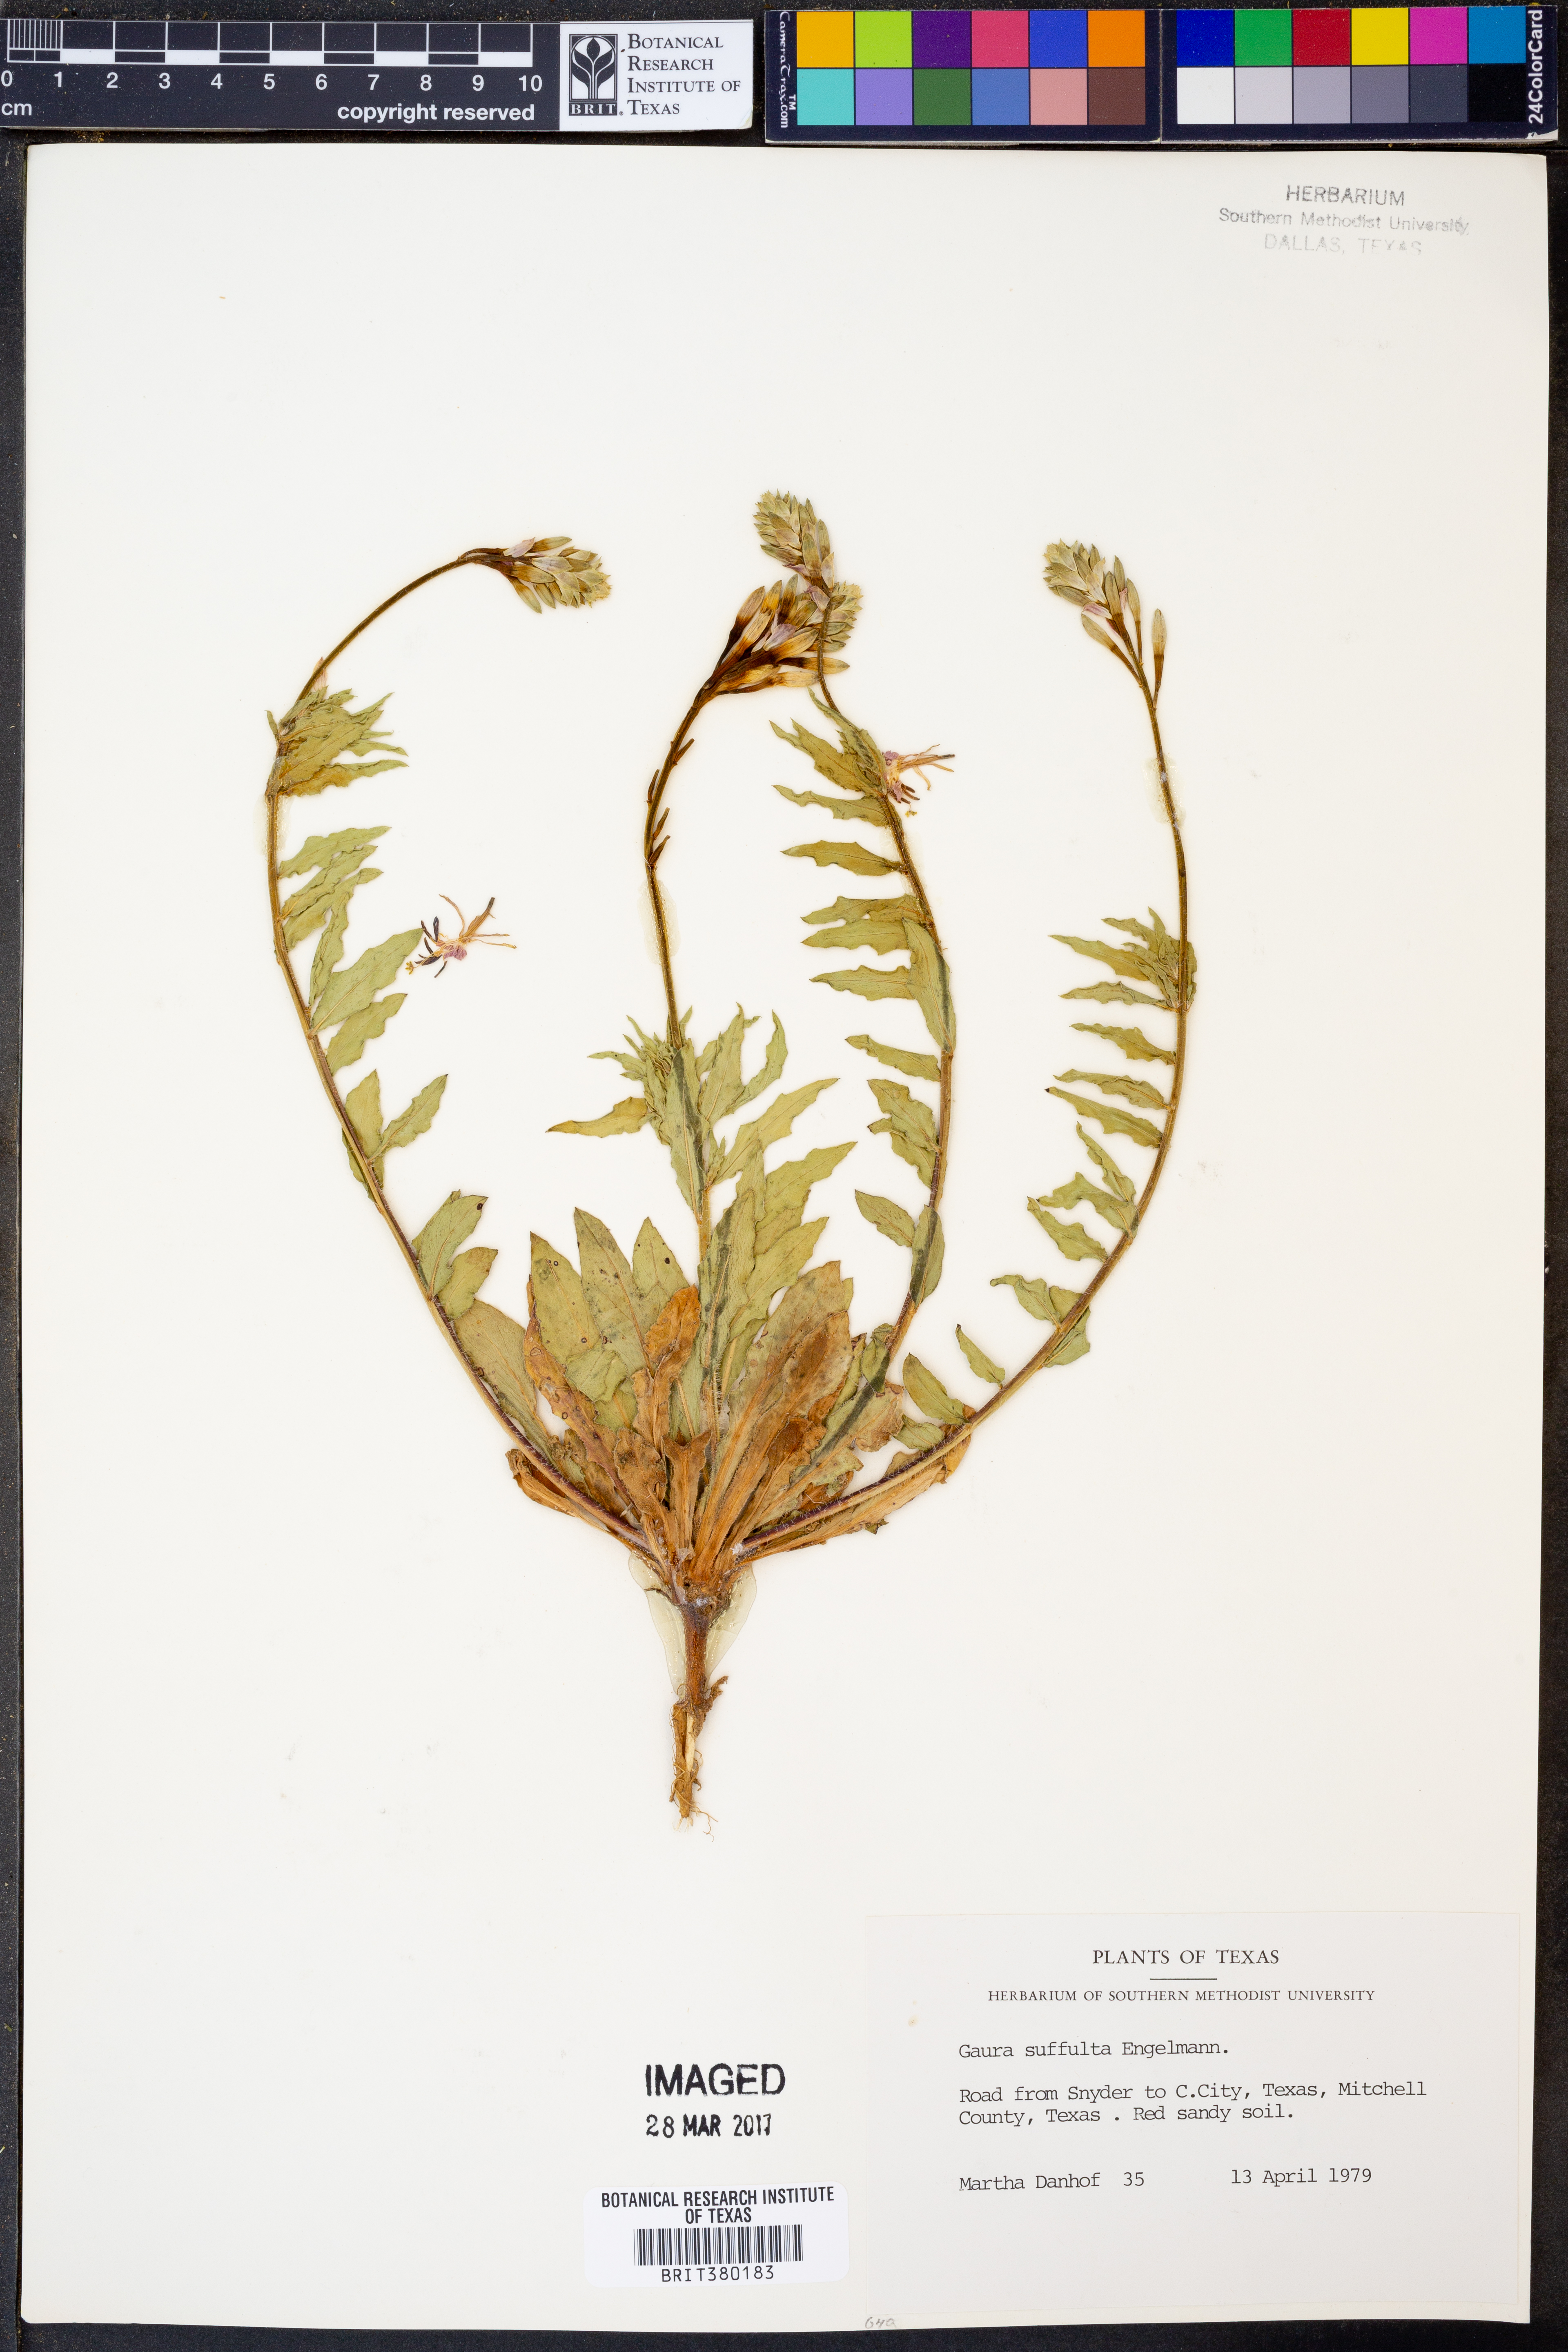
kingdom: Plantae
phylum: Tracheophyta
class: Magnoliopsida
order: Myrtales
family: Onagraceae
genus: Oenothera
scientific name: Oenothera Gaura suffulta
